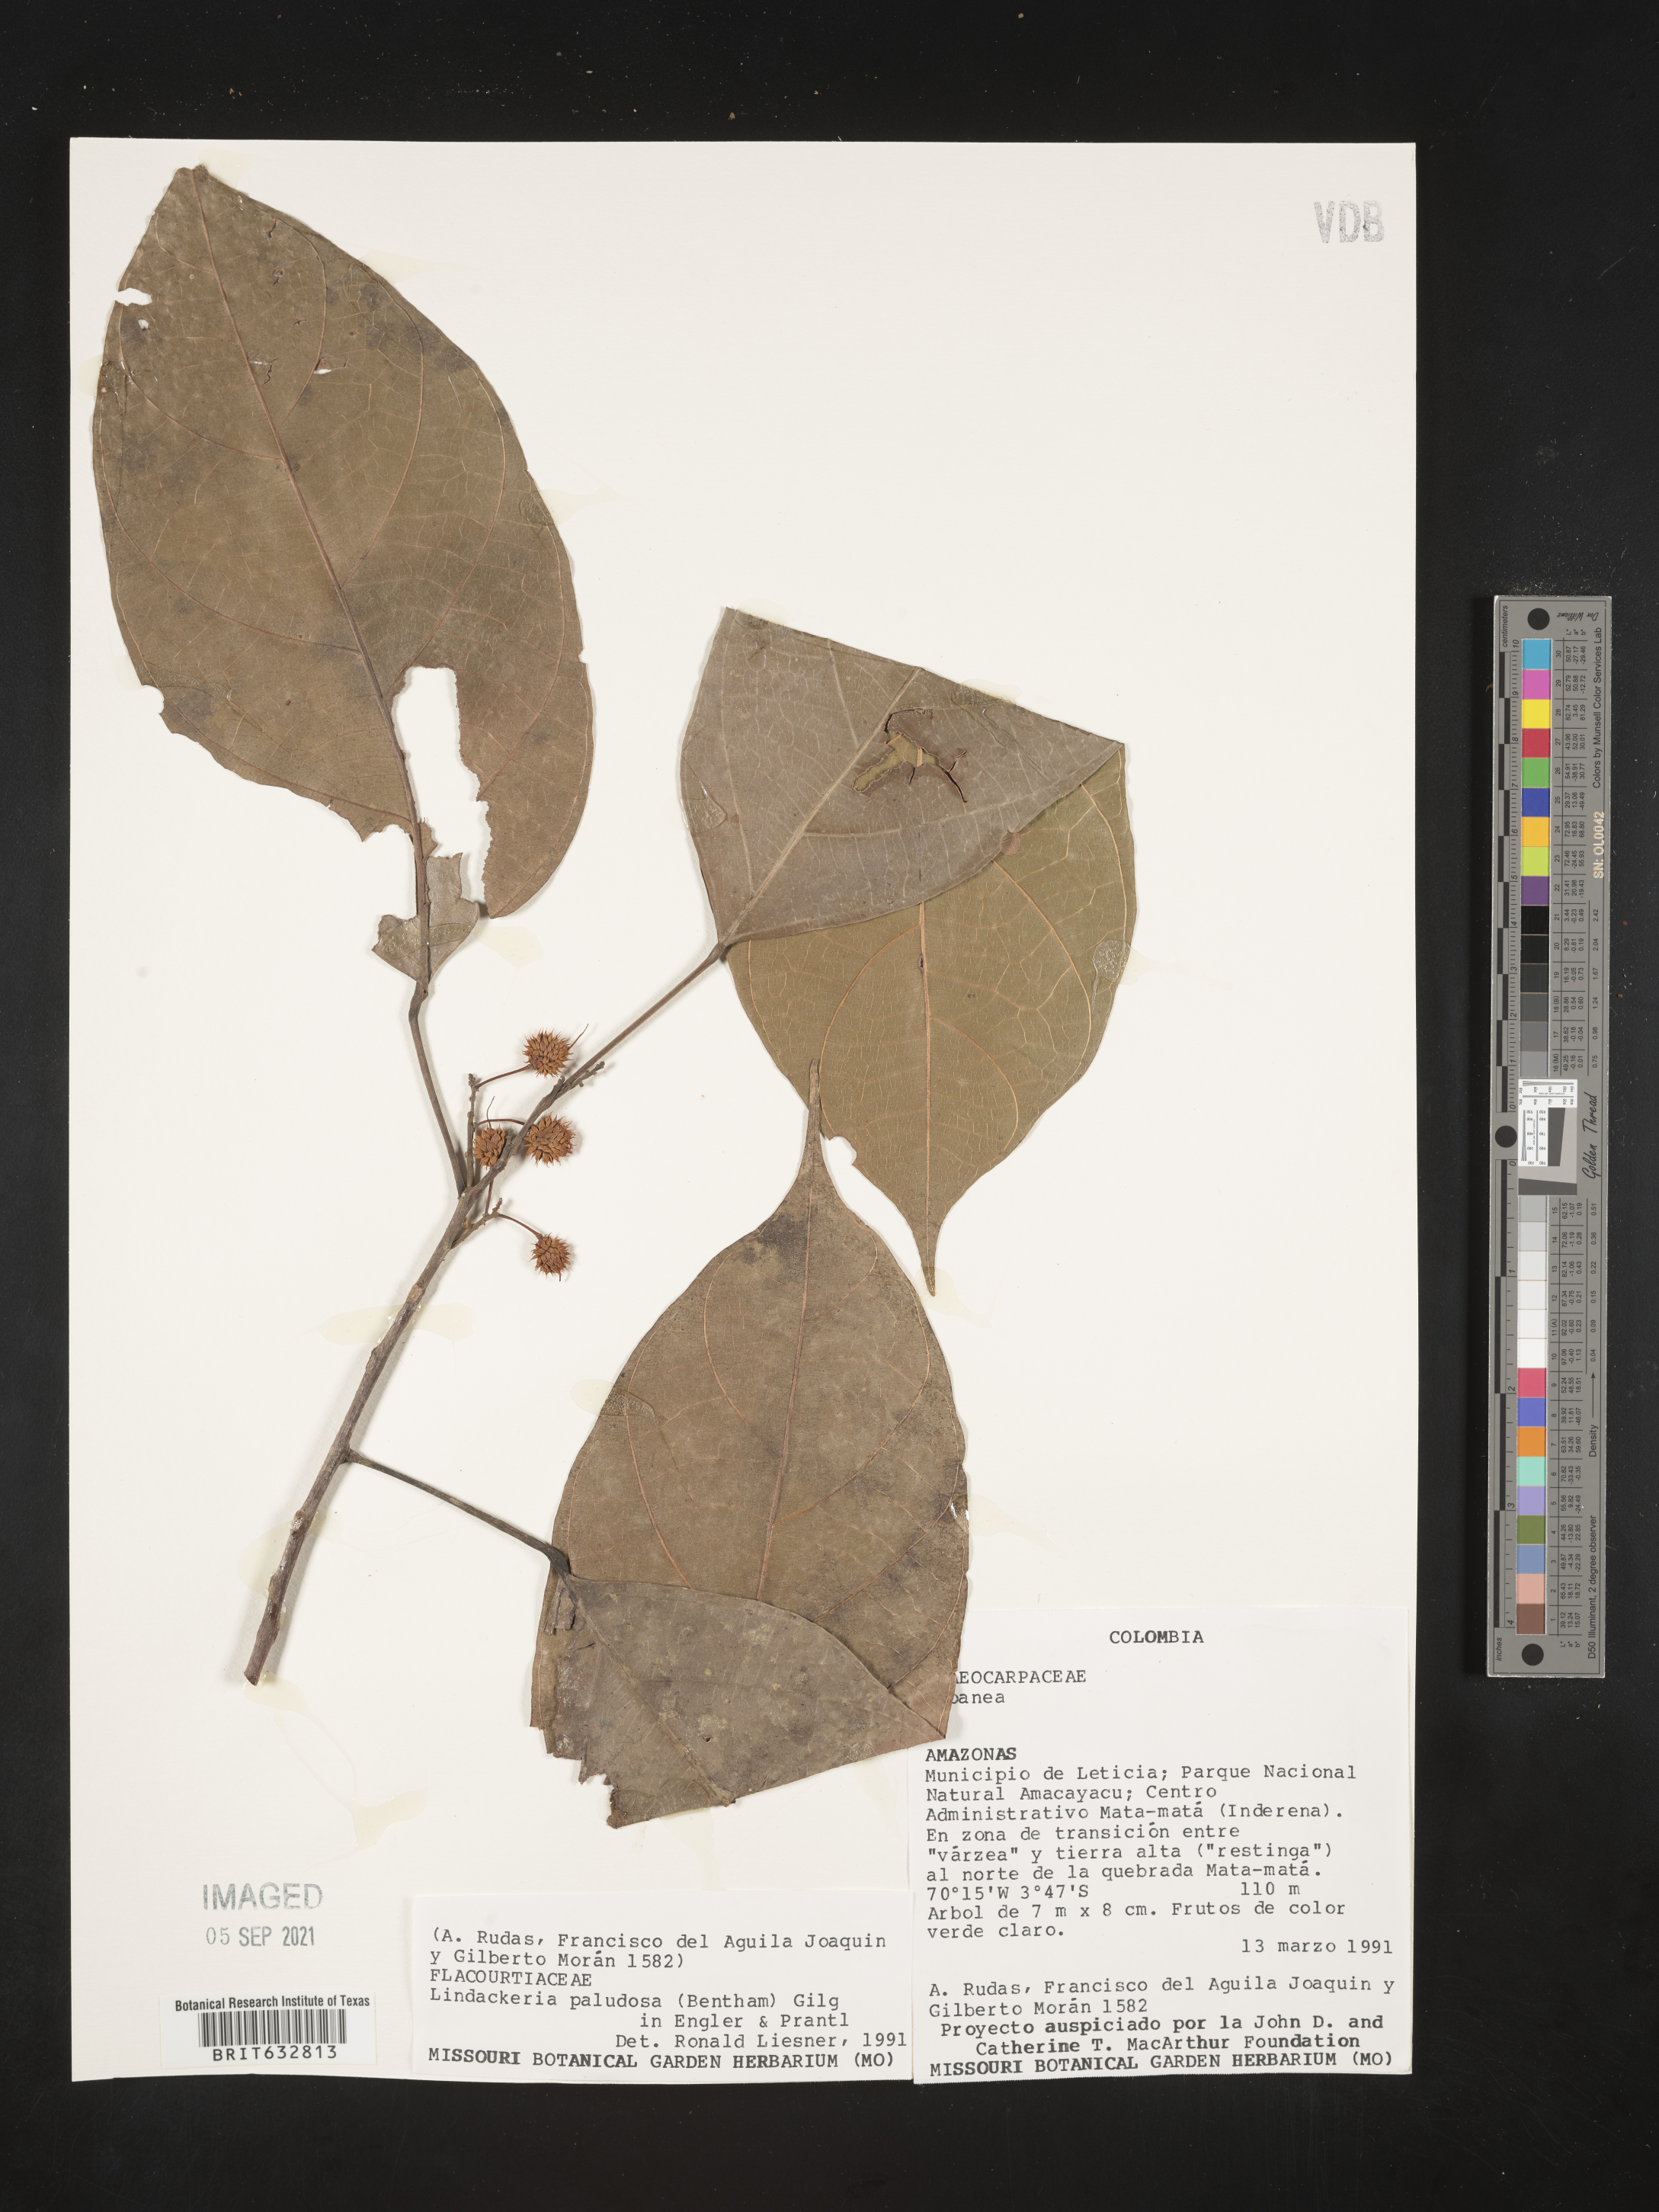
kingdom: Plantae
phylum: Tracheophyta
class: Magnoliopsida
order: Malpighiales
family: Achariaceae
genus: Lindackeria
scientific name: Lindackeria paludosa
